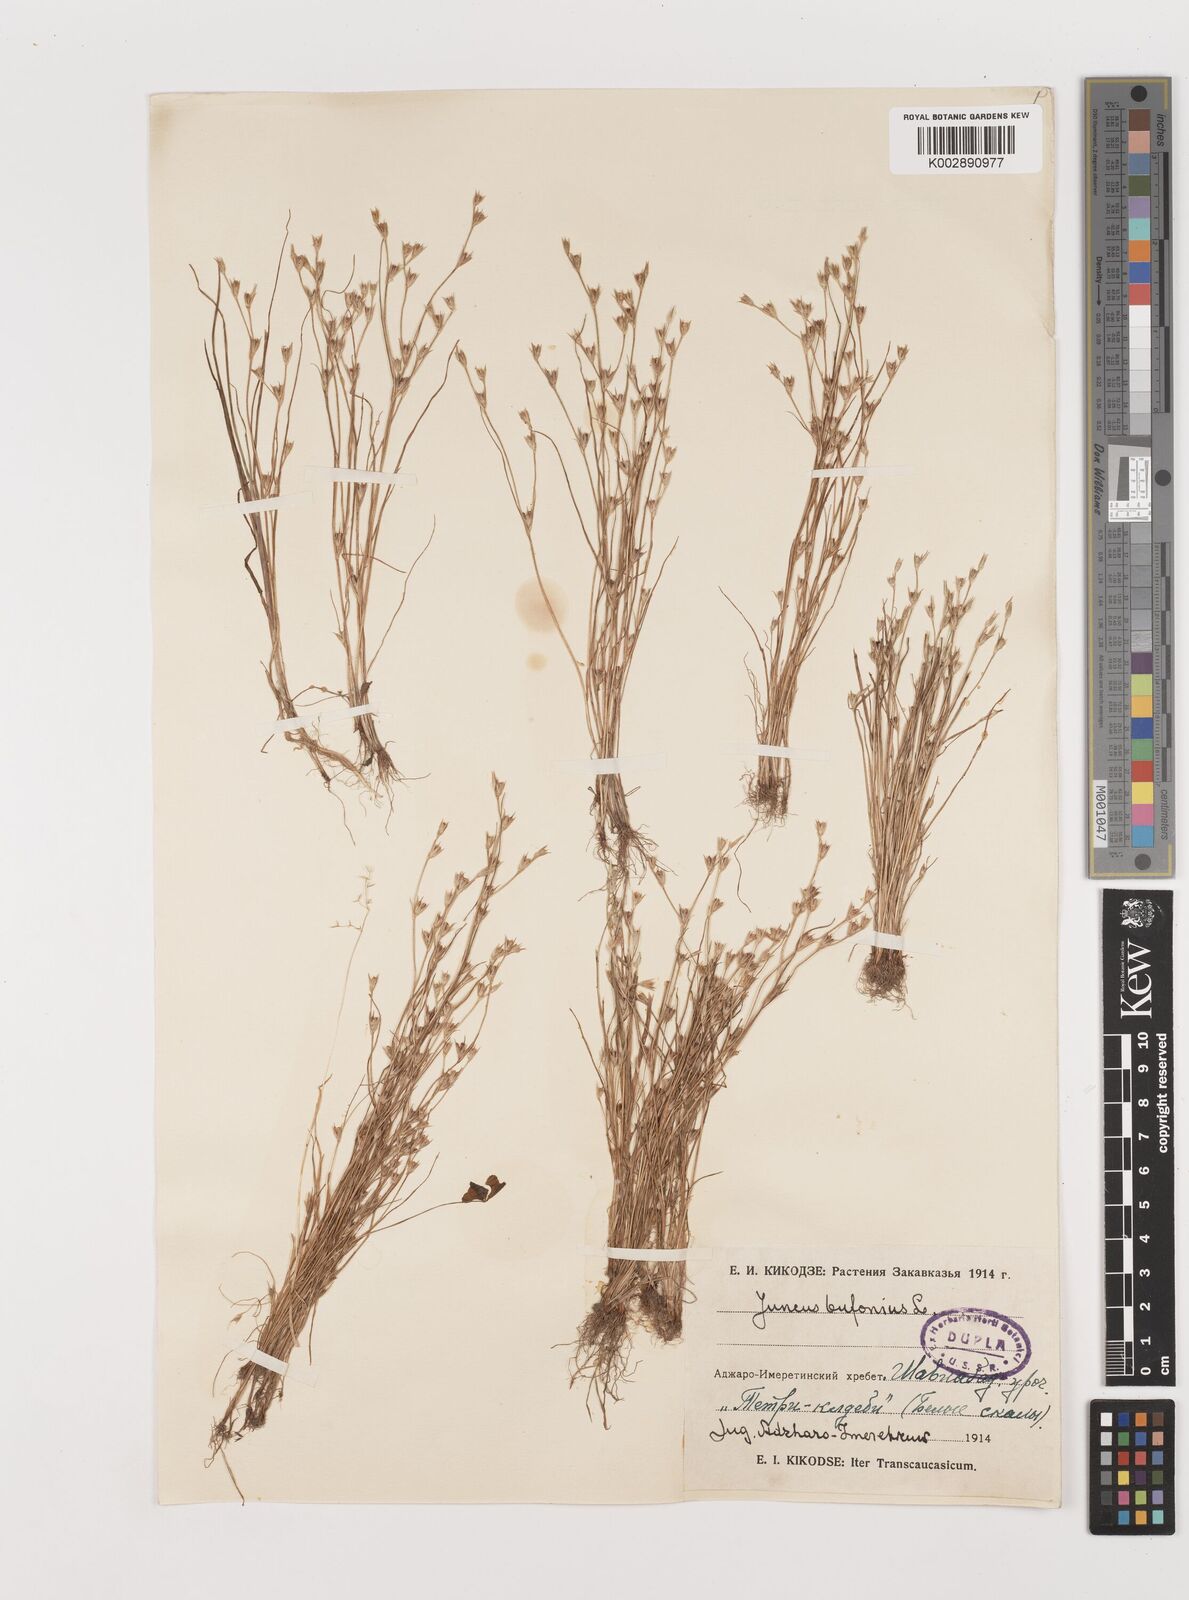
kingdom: Plantae
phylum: Tracheophyta
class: Liliopsida
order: Poales
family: Juncaceae
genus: Juncus
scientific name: Juncus bufonius
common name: Toad rush
